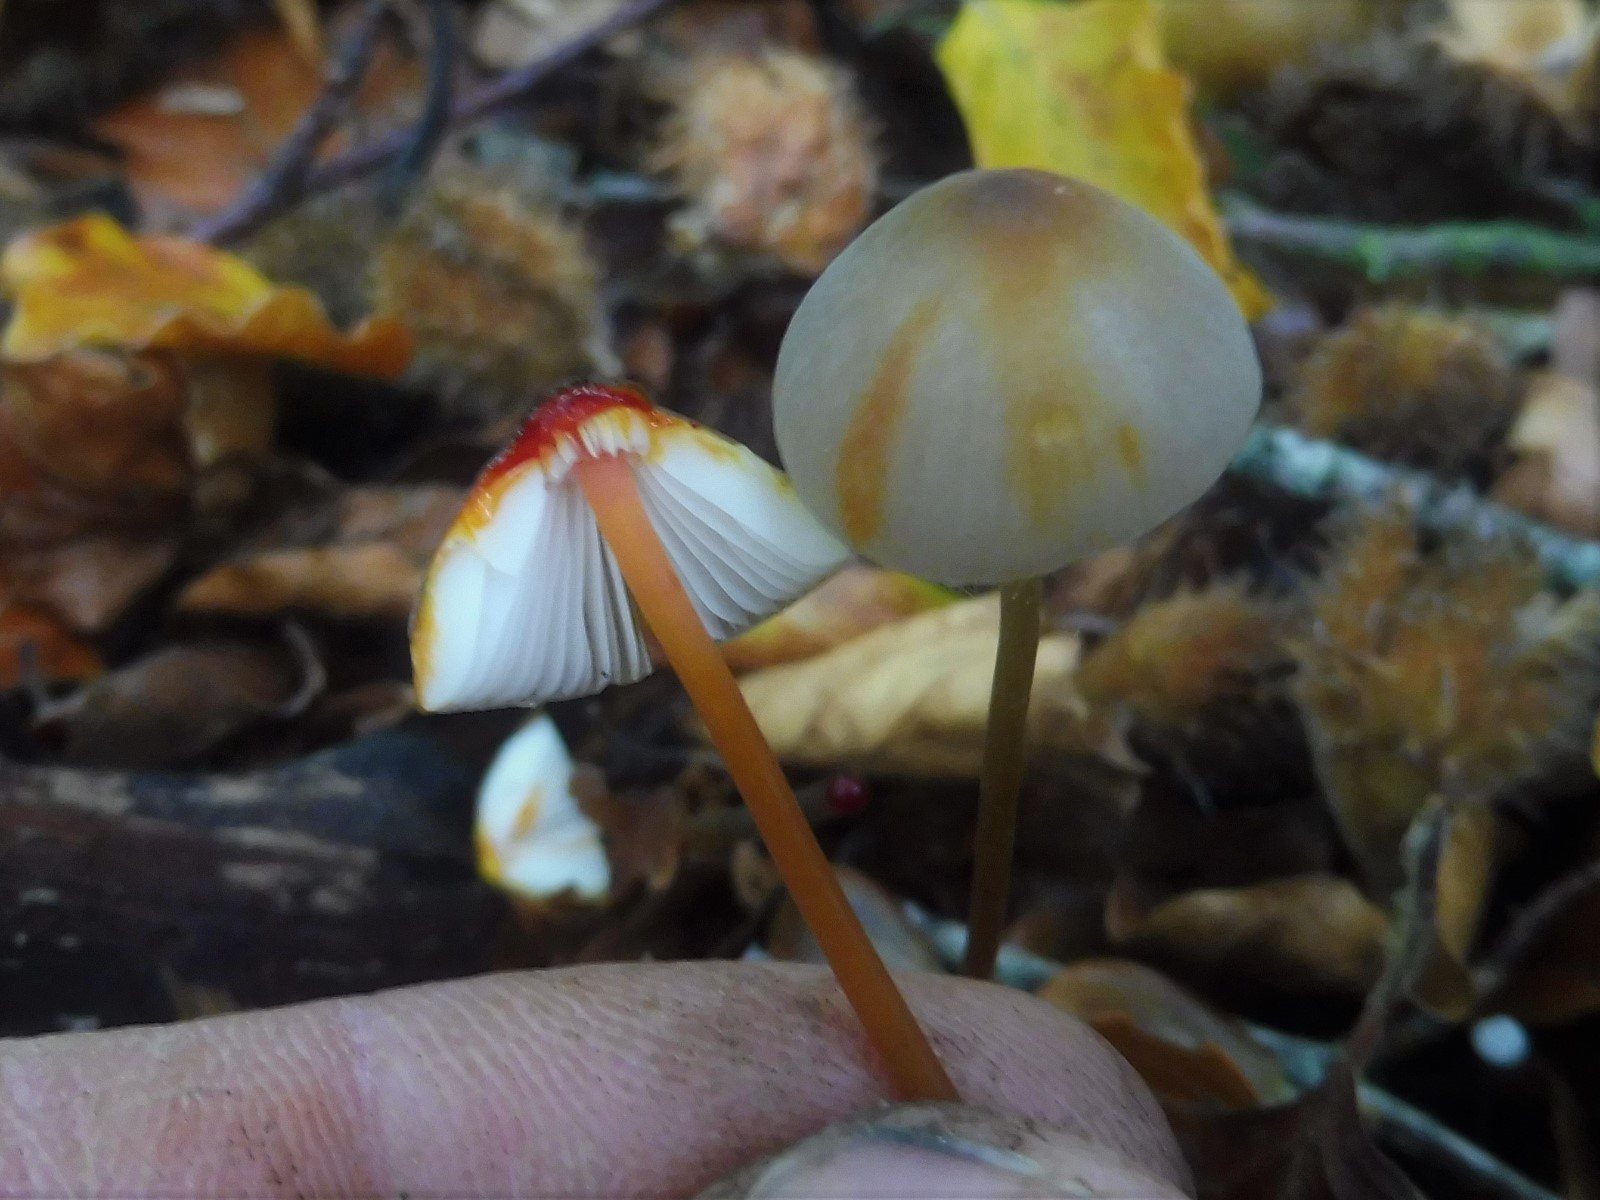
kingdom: Fungi
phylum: Basidiomycota
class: Agaricomycetes
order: Agaricales
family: Mycenaceae
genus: Mycena
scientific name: Mycena crocata
